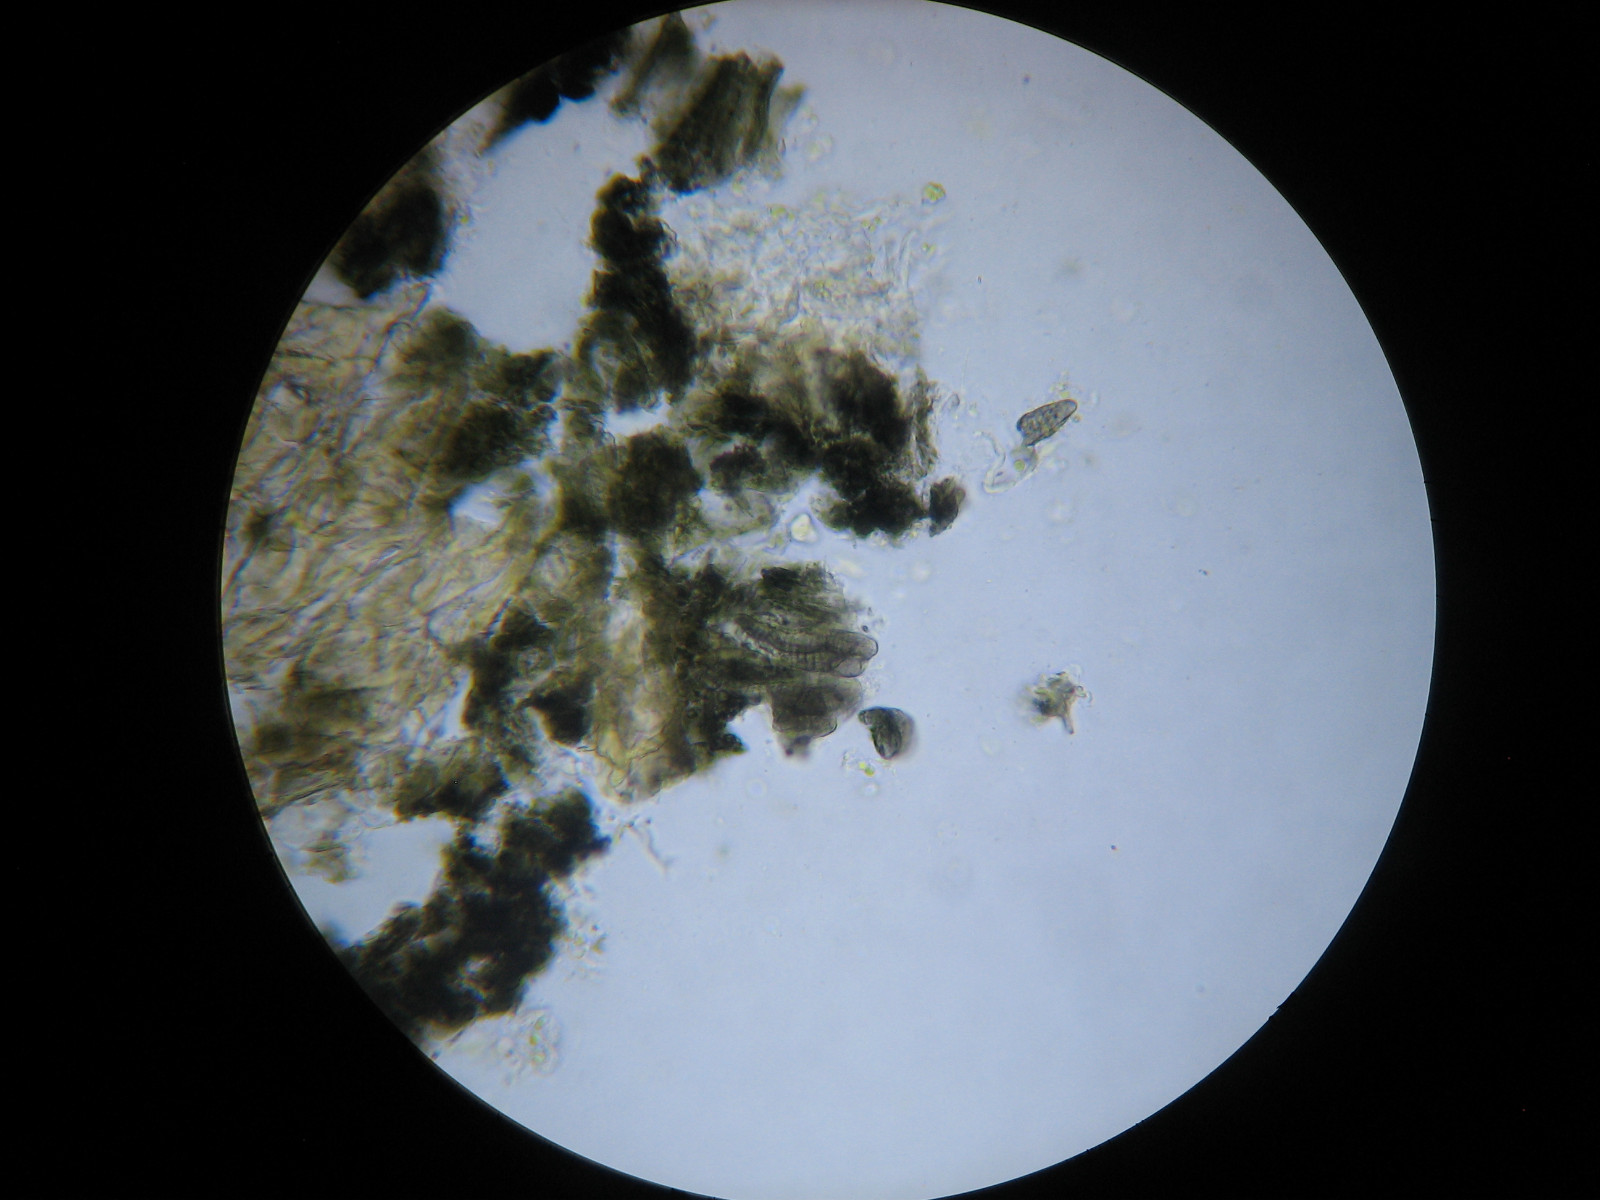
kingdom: Fungi
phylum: Ascomycota
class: Arthoniomycetes
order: Arthoniales
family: Arthoniaceae
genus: Arthothelium
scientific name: Arthothelium ruanum
